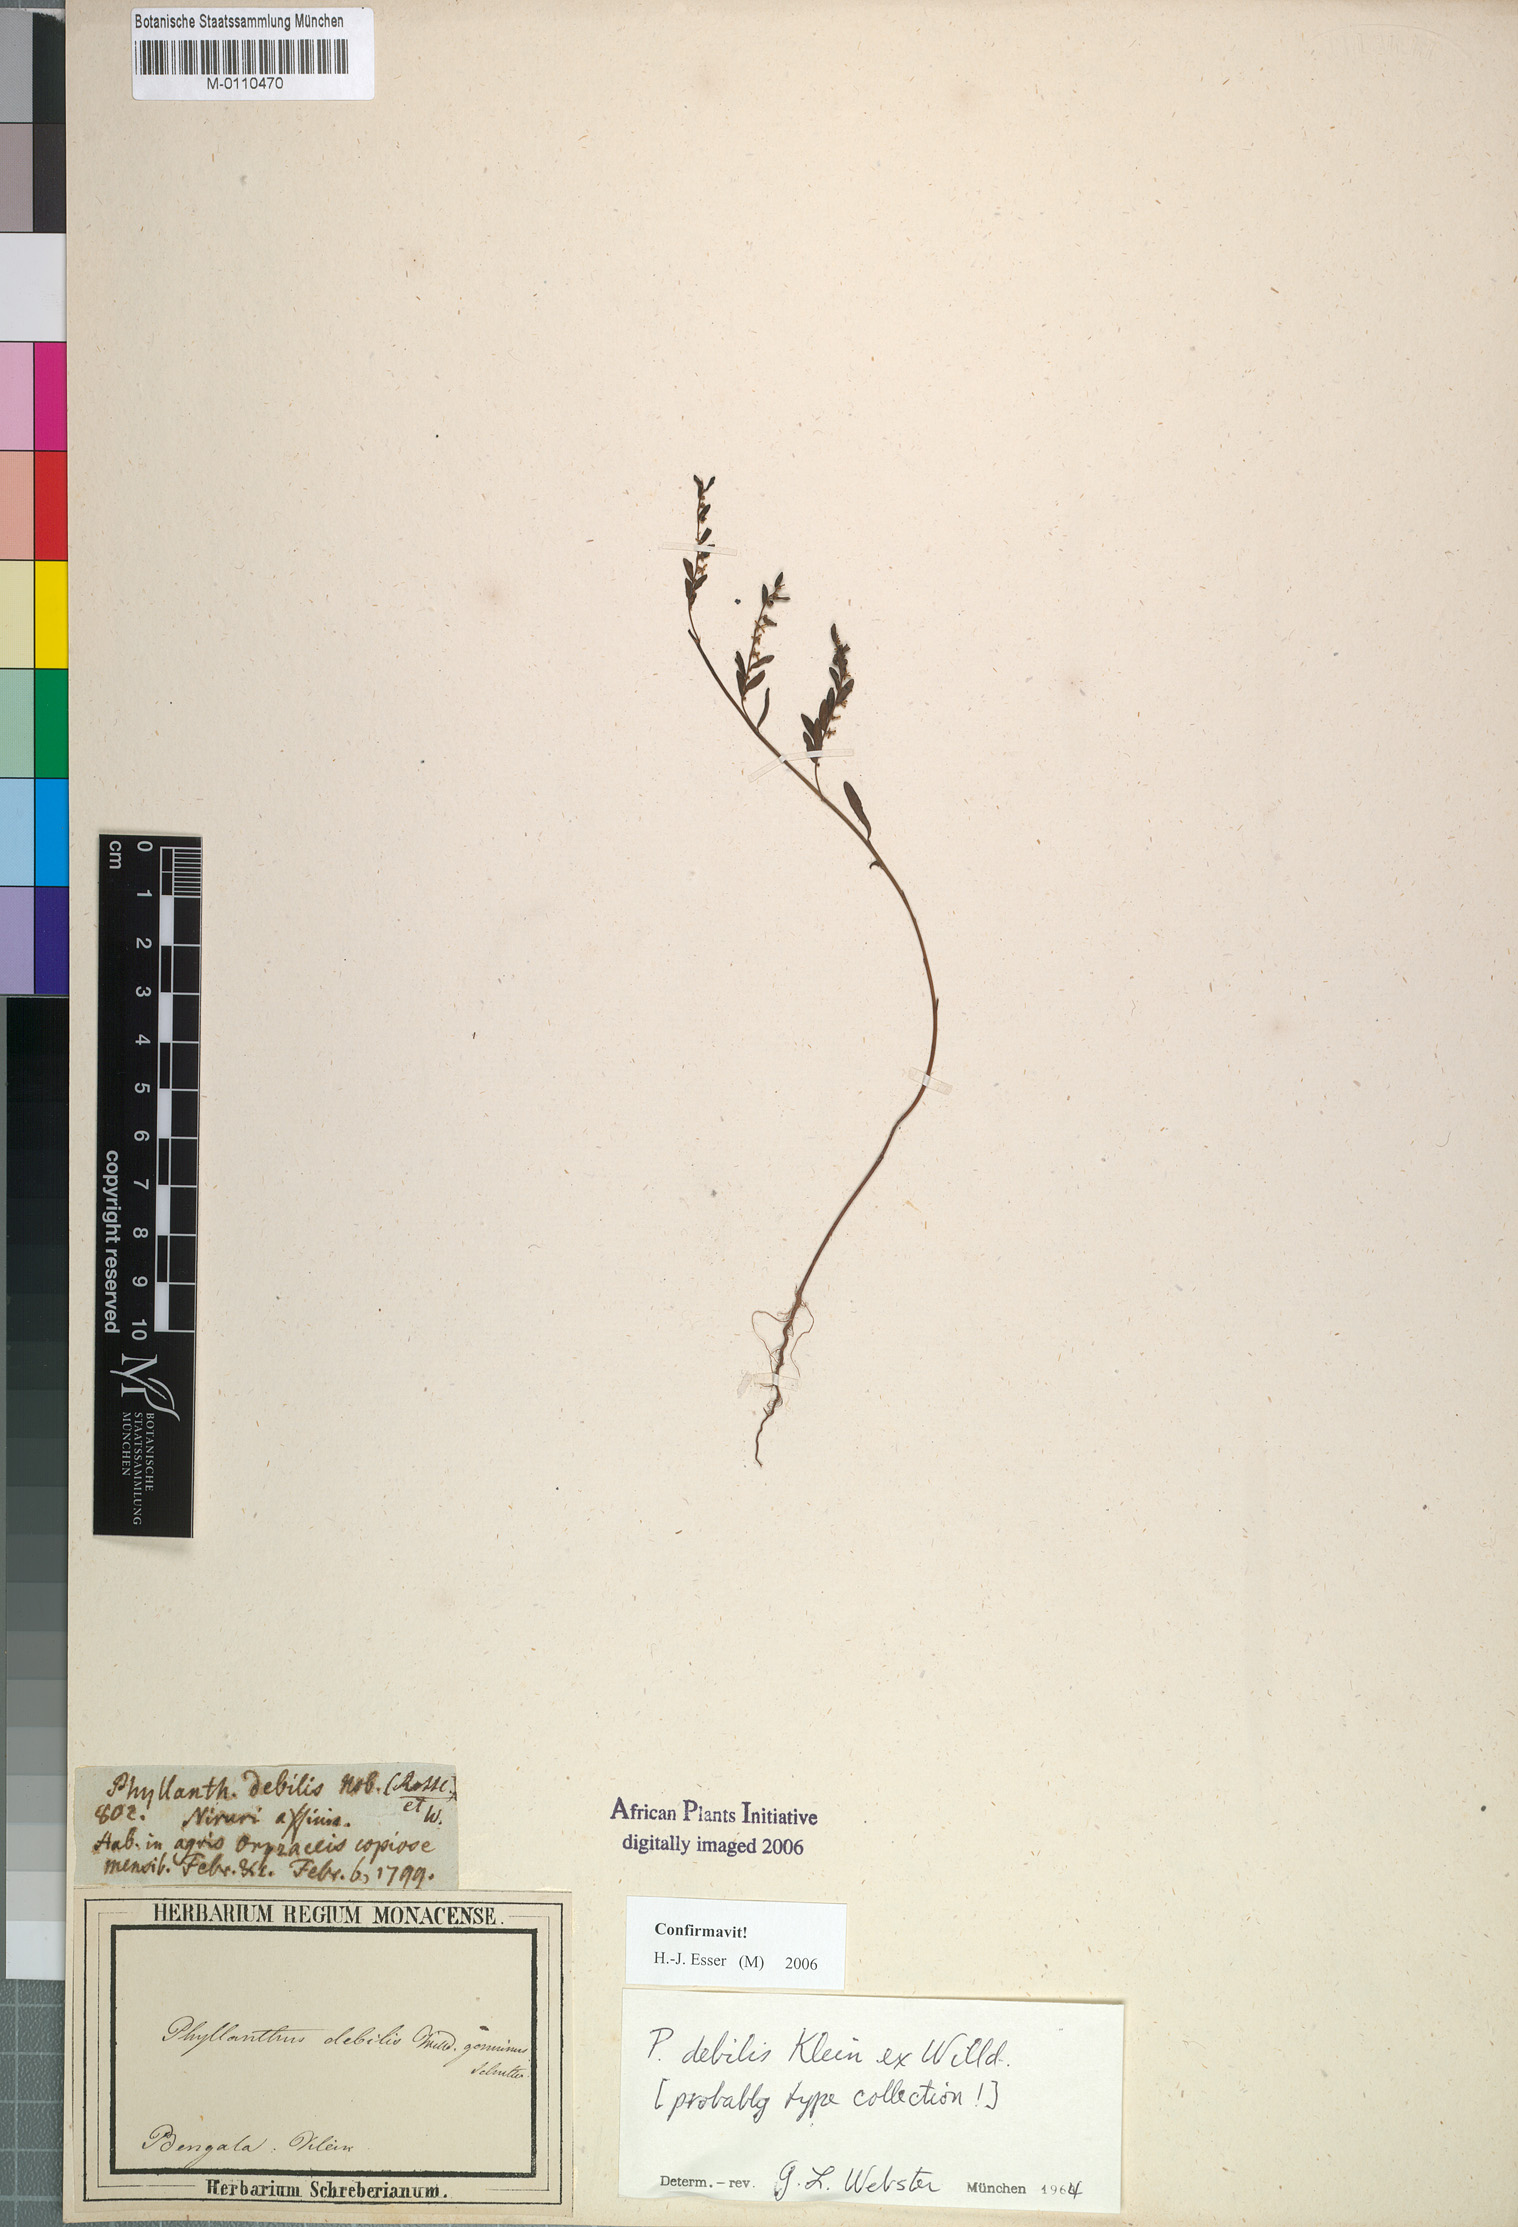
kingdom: Plantae
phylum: Tracheophyta
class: Magnoliopsida
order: Malpighiales
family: Phyllanthaceae
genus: Phyllanthus
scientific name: Phyllanthus debilis
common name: Niruri
